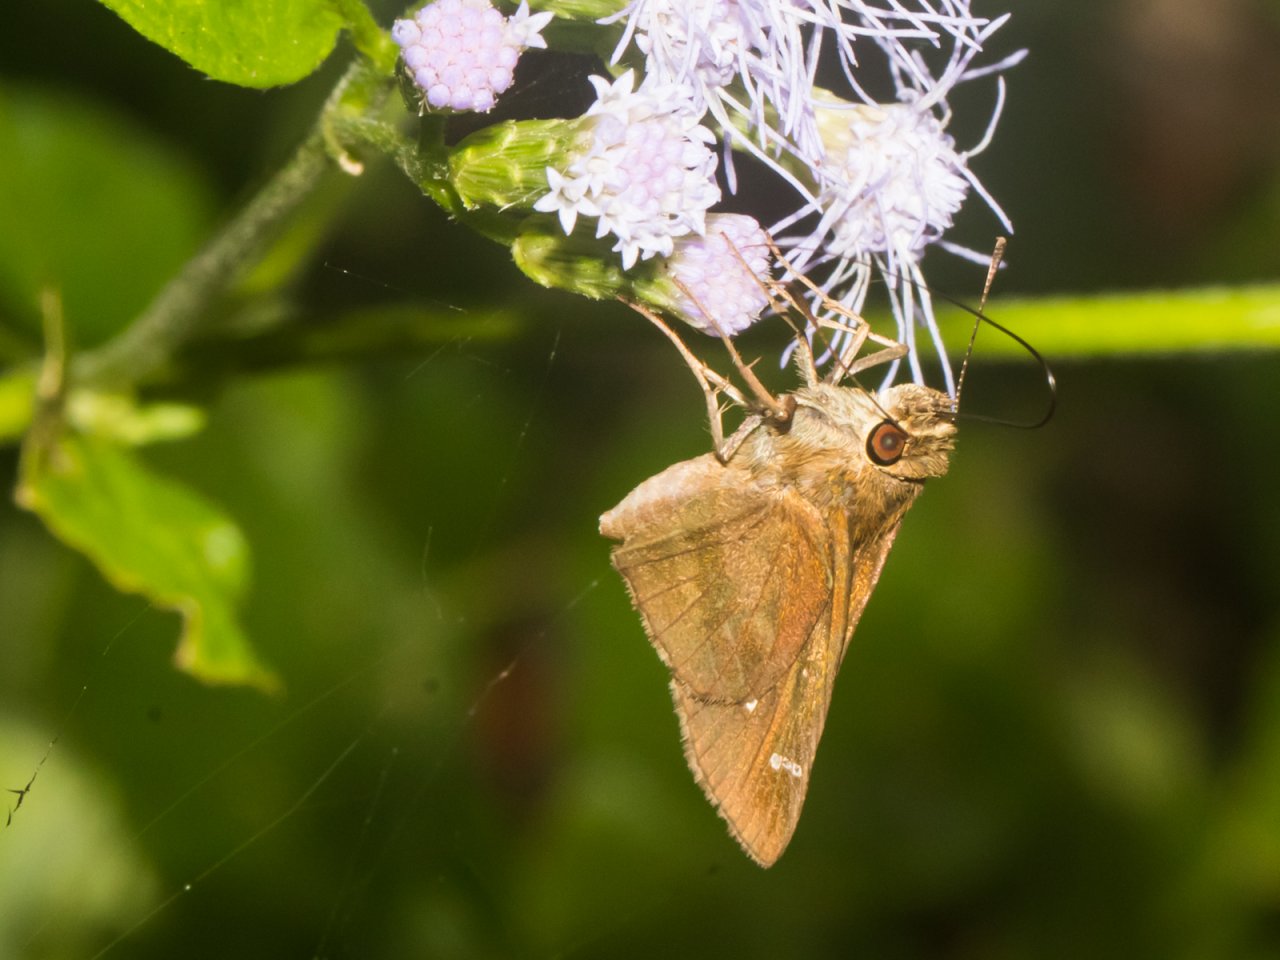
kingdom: Animalia
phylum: Arthropoda
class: Insecta
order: Lepidoptera
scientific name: Lepidoptera
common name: Butterflies
